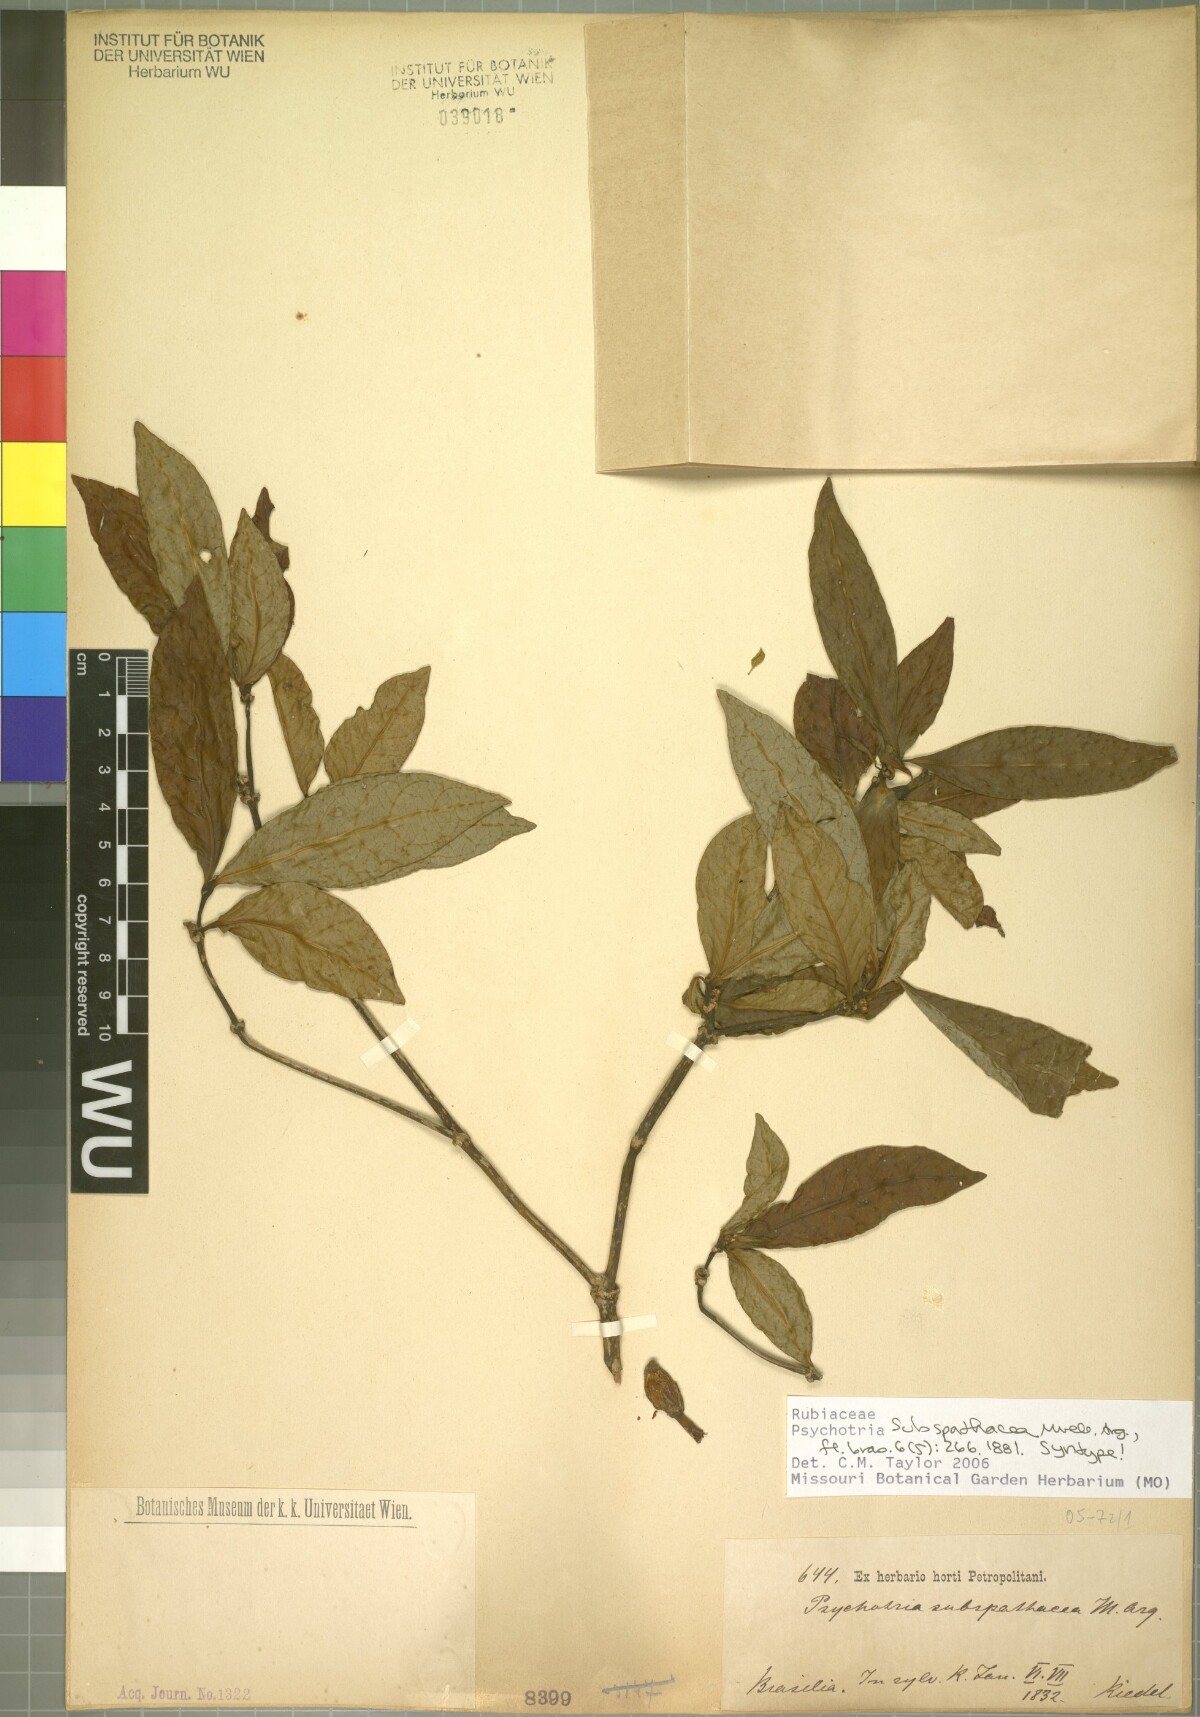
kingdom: Plantae
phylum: Tracheophyta
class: Magnoliopsida
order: Gentianales
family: Rubiaceae
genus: Psychotria
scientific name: Psychotria subspathacea
